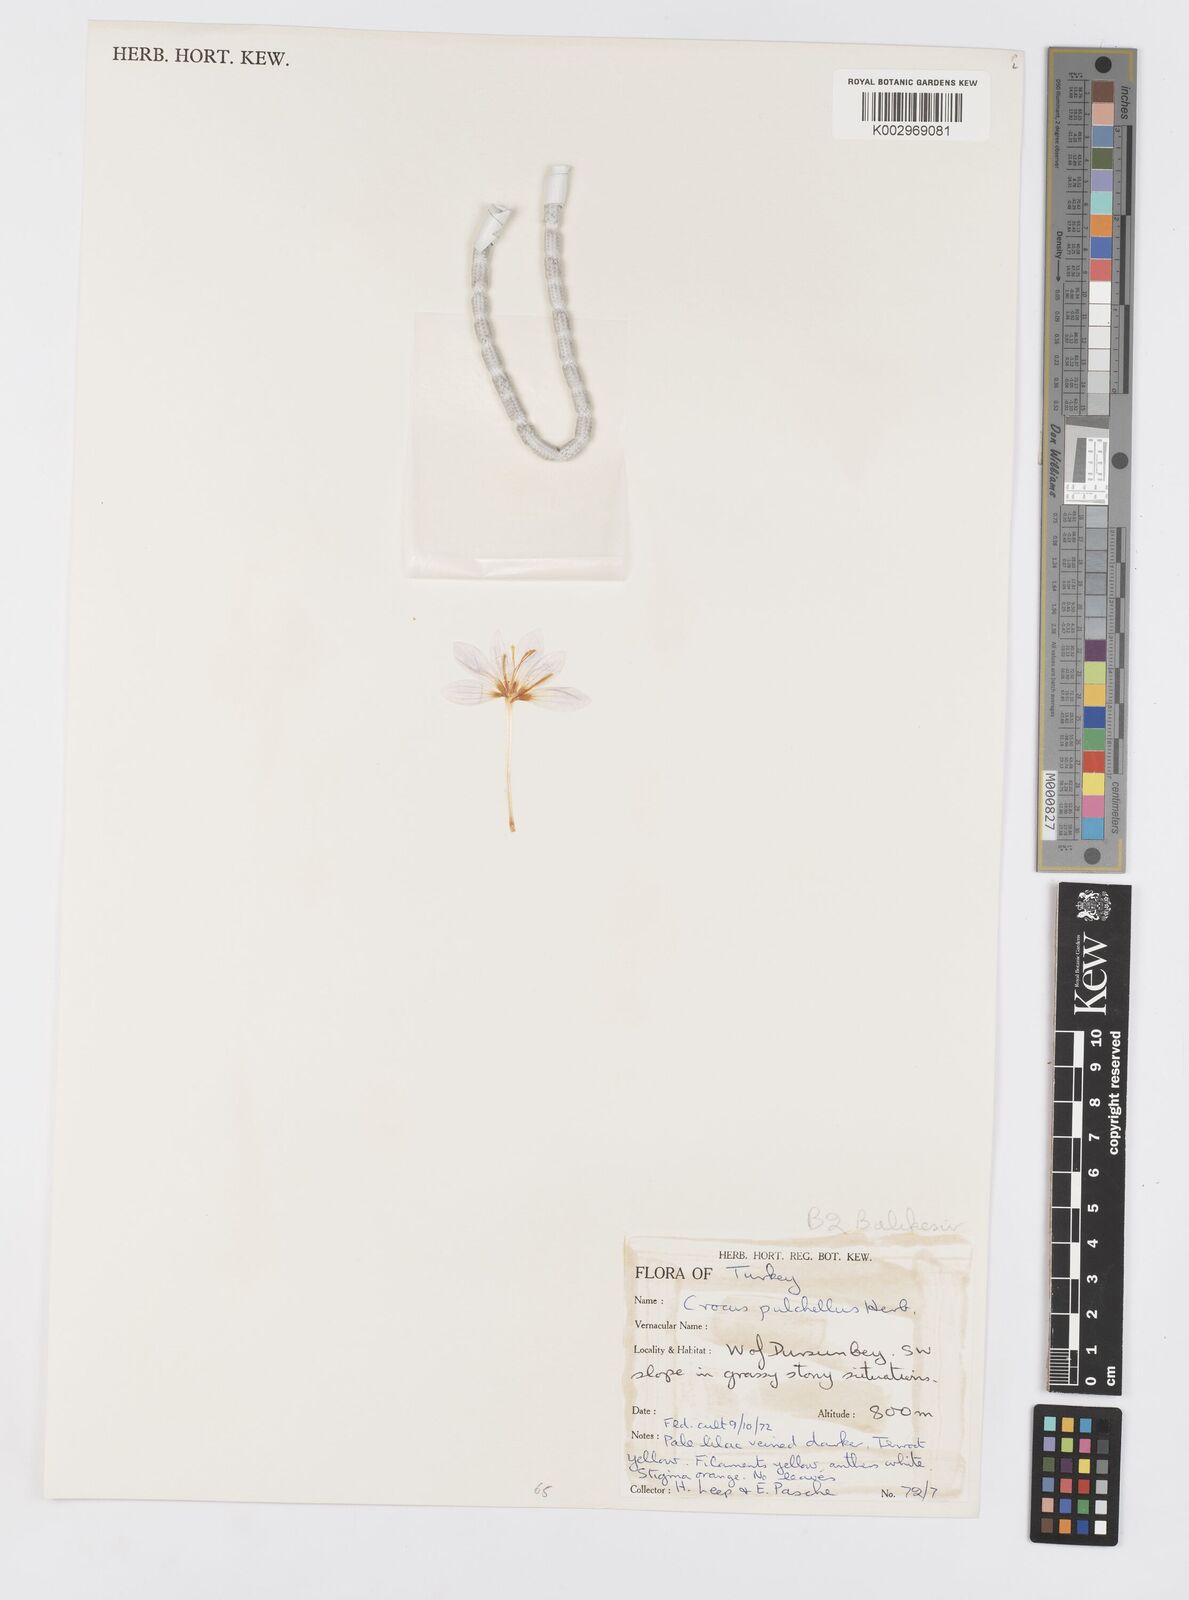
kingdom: Plantae
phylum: Tracheophyta
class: Liliopsida
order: Asparagales
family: Iridaceae
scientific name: Iridaceae
